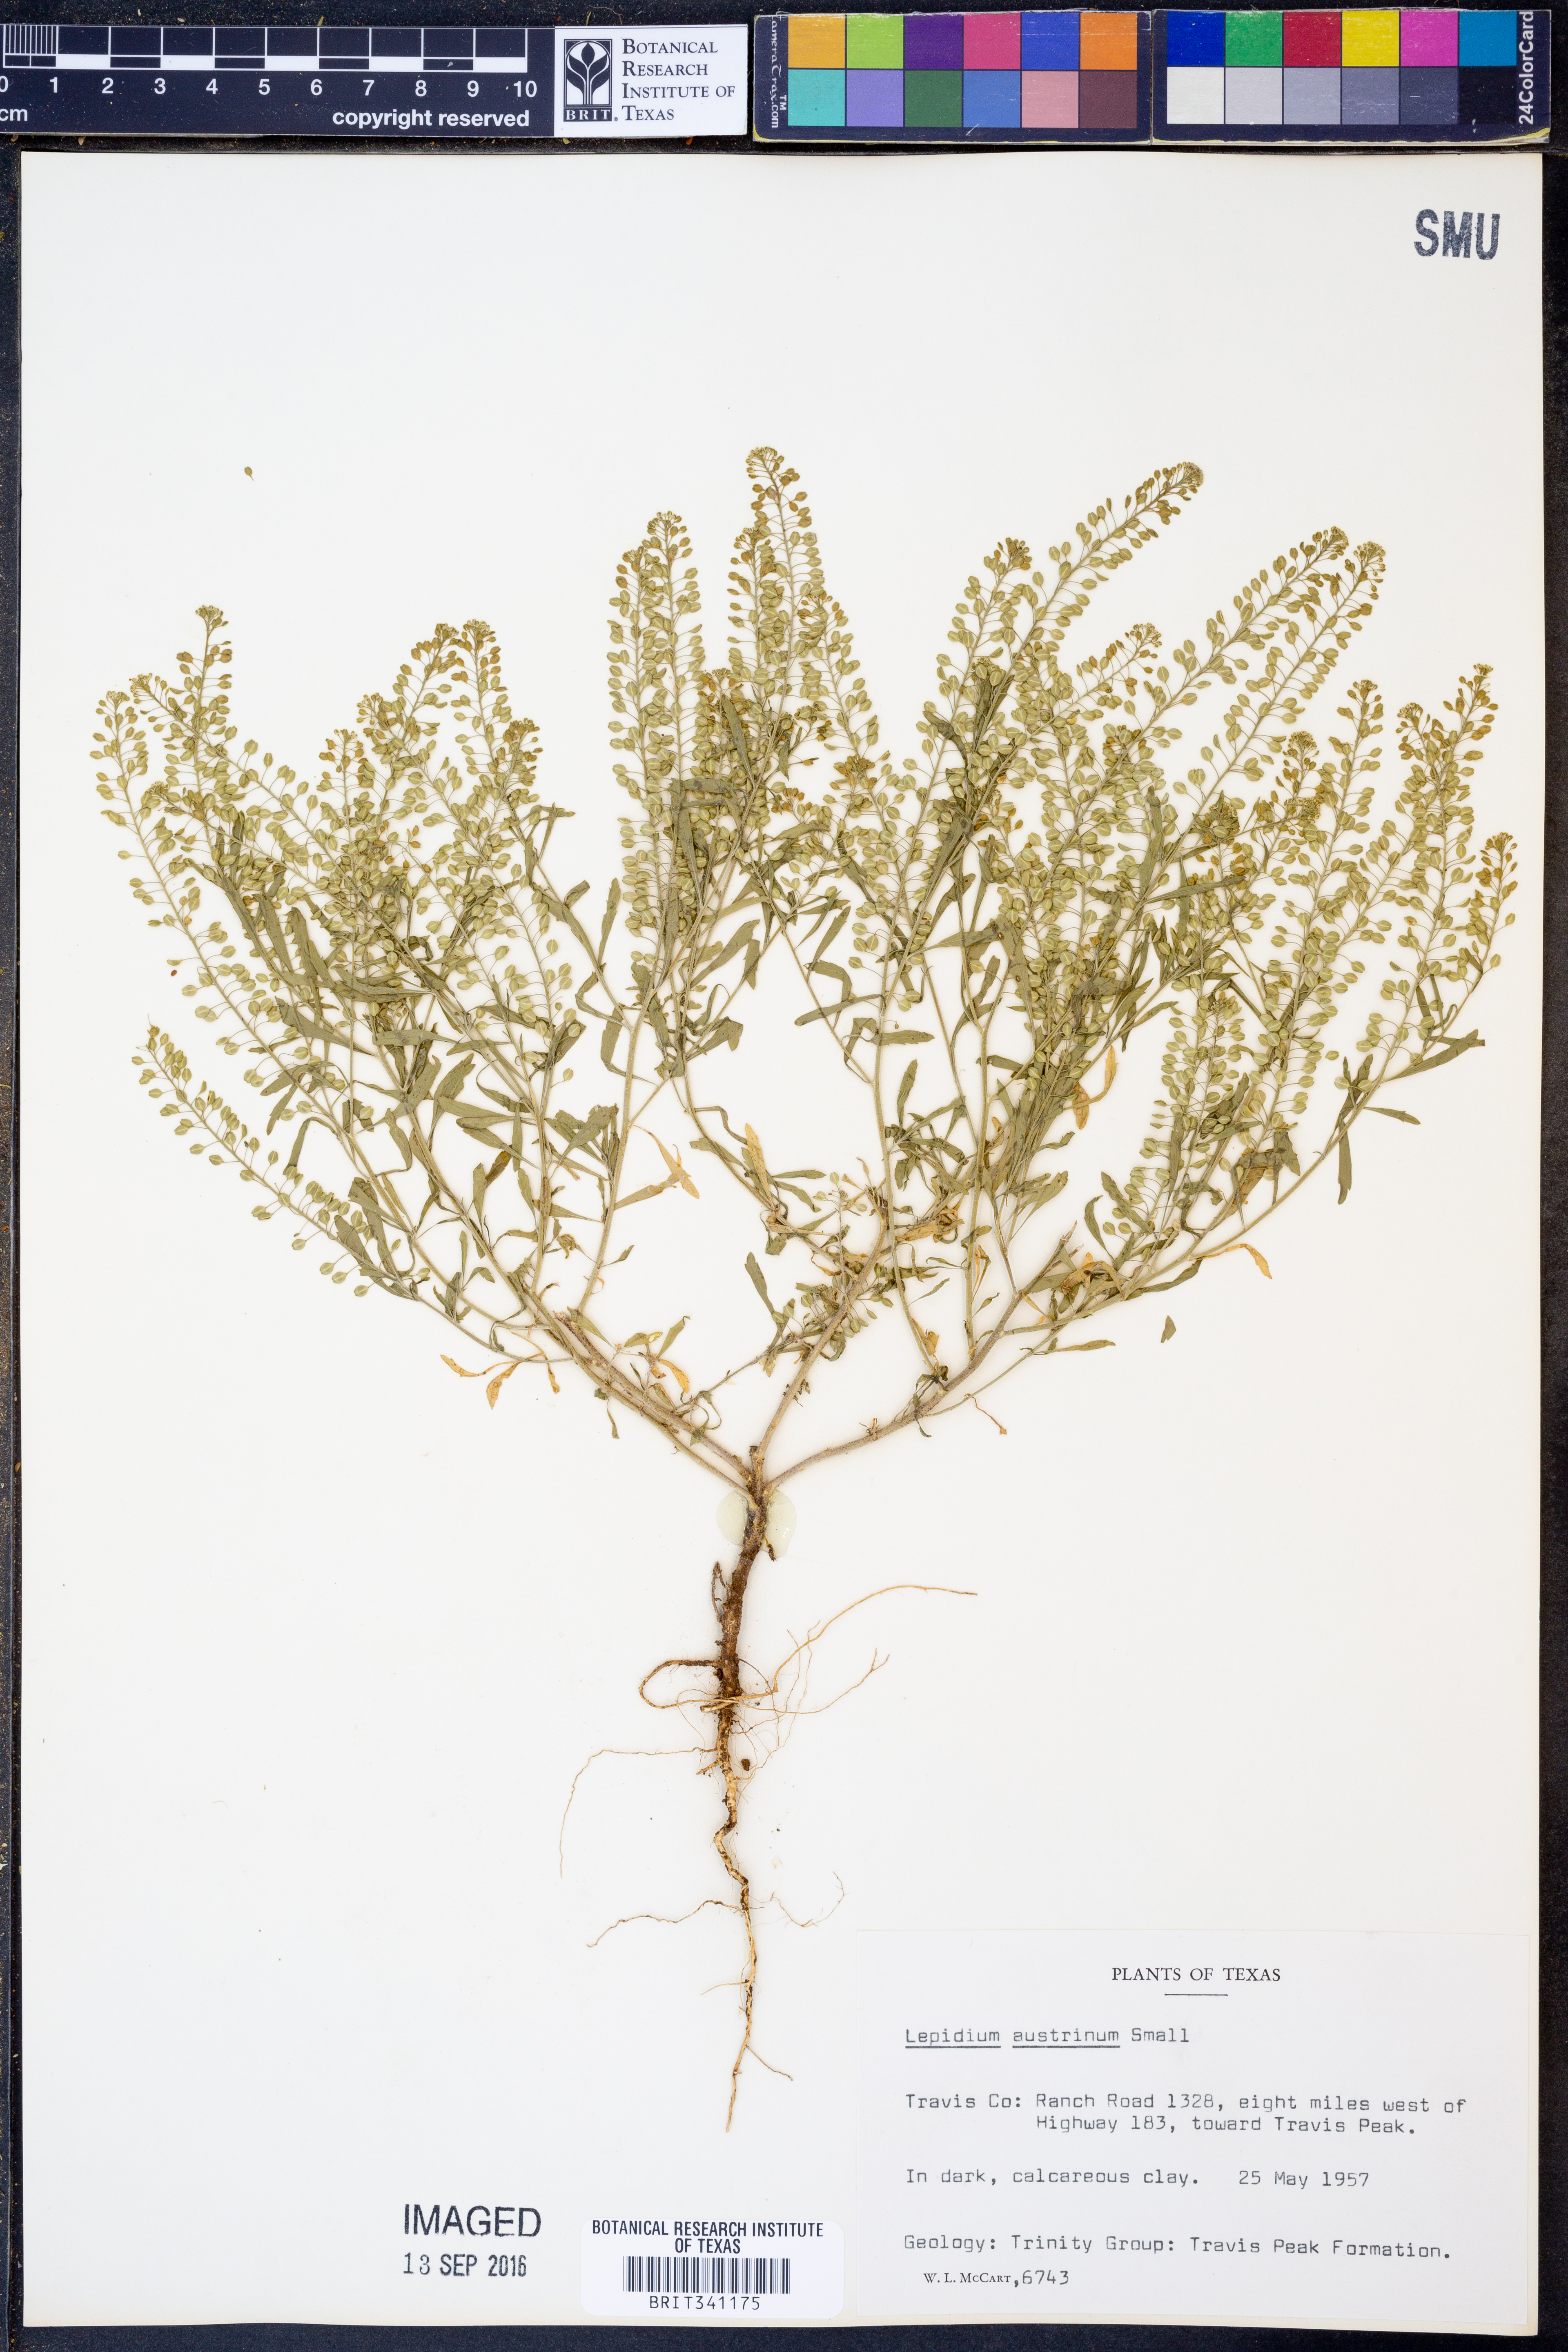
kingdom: Plantae
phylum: Tracheophyta
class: Magnoliopsida
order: Brassicales
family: Brassicaceae
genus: Lepidium
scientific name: Lepidium austrinum
